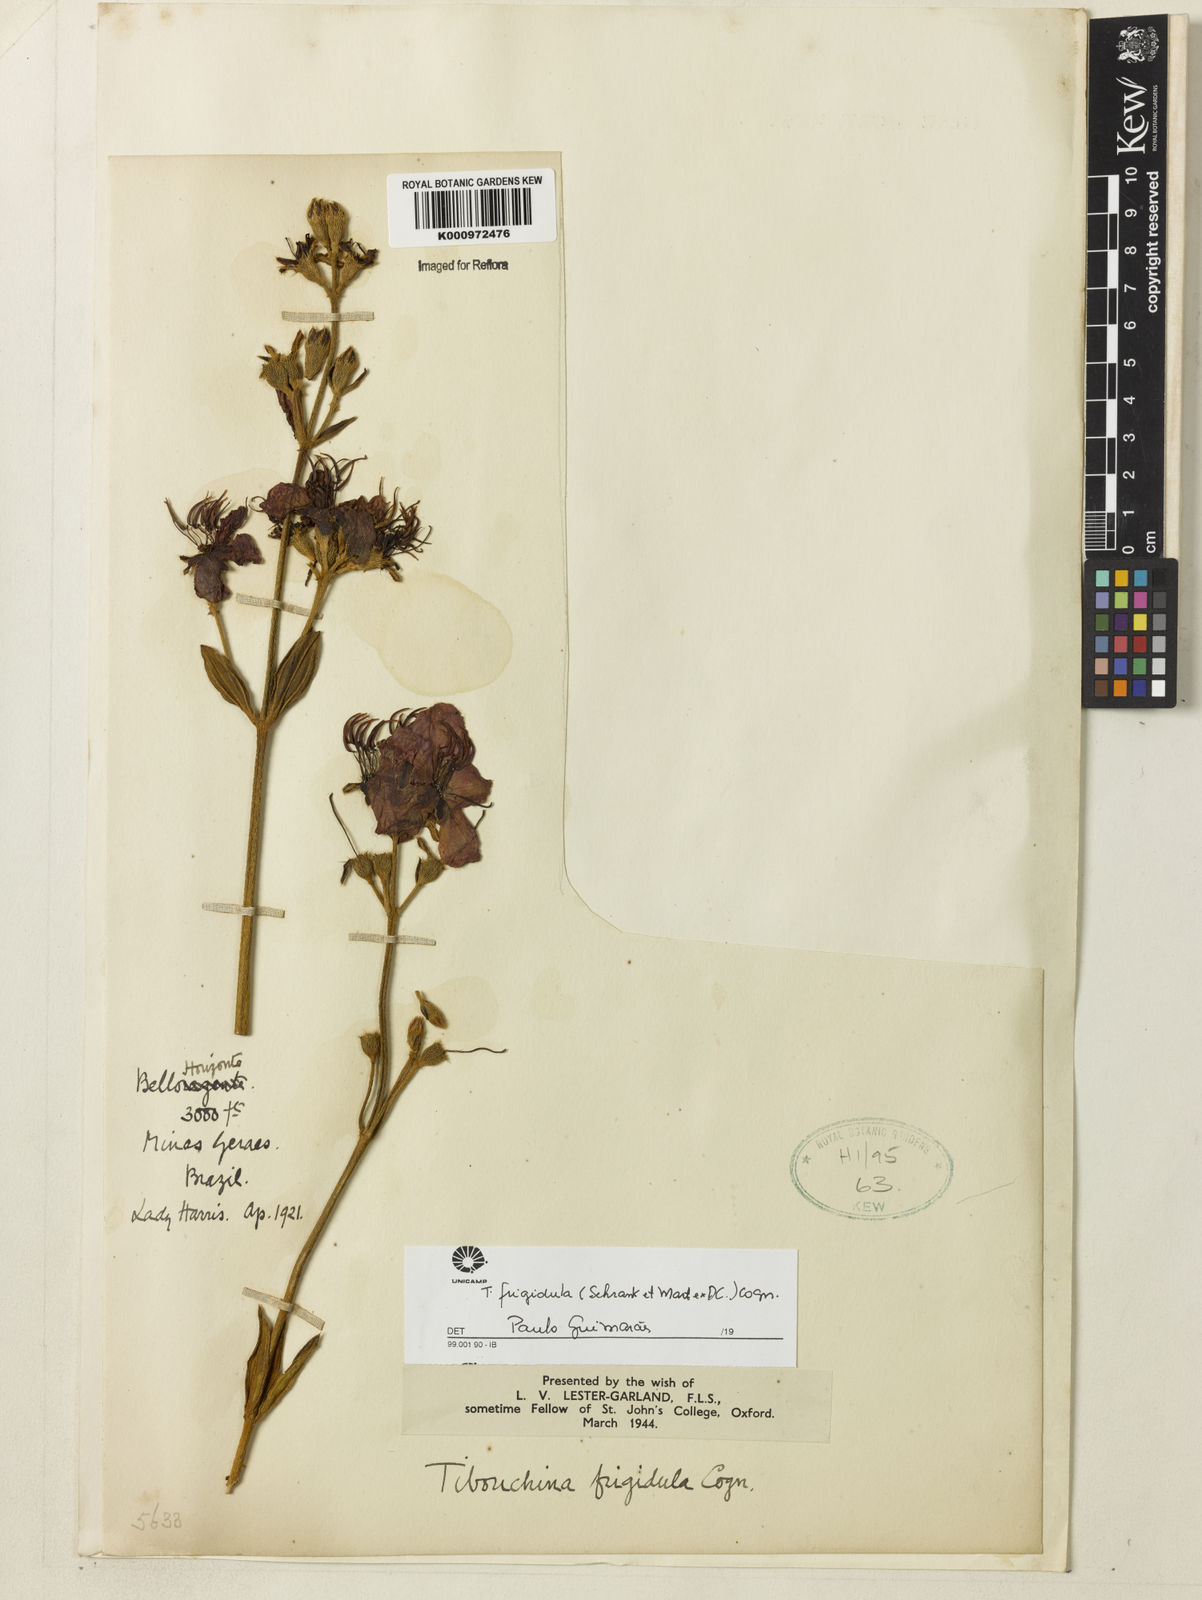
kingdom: Plantae
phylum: Tracheophyta
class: Magnoliopsida
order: Myrtales
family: Melastomataceae
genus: Pleroma
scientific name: Pleroma martiusianum
